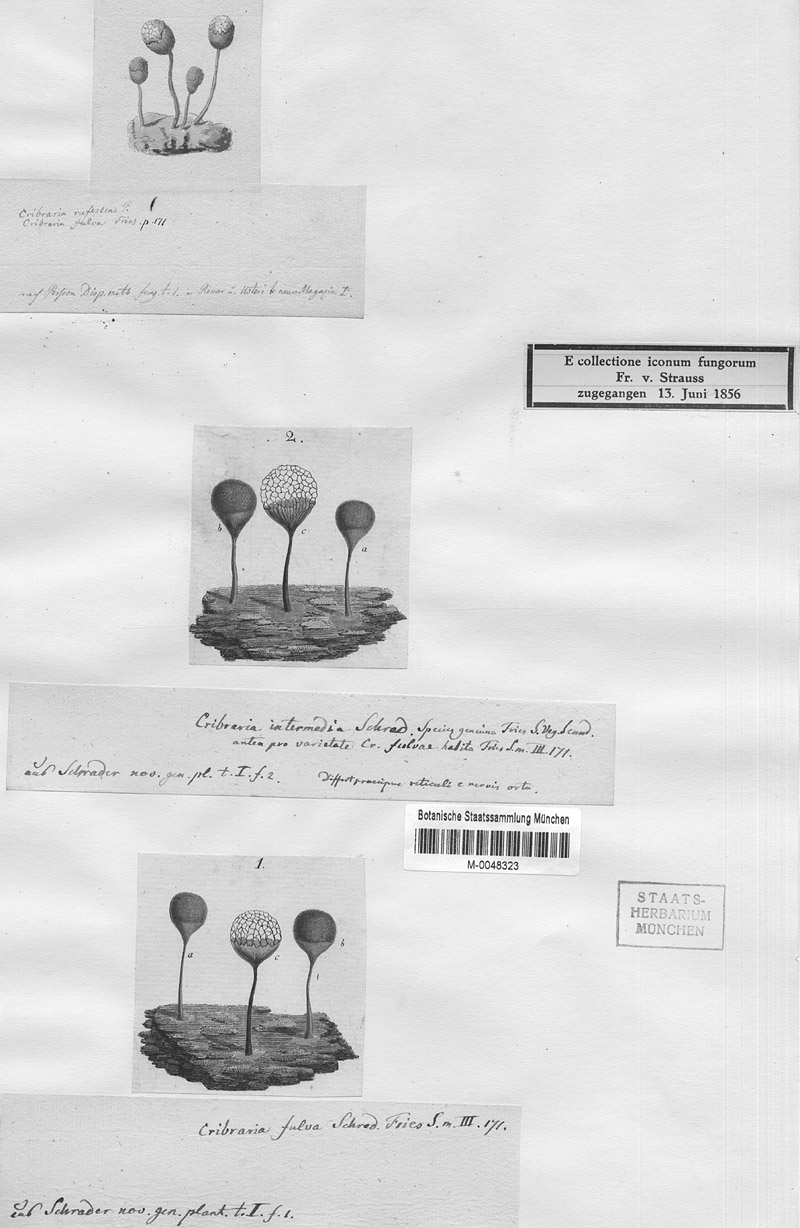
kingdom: Protozoa
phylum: Mycetozoa
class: Myxomycetes
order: Cribrariales
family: Cribrariaceae
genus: Cribraria
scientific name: Cribraria rufa
